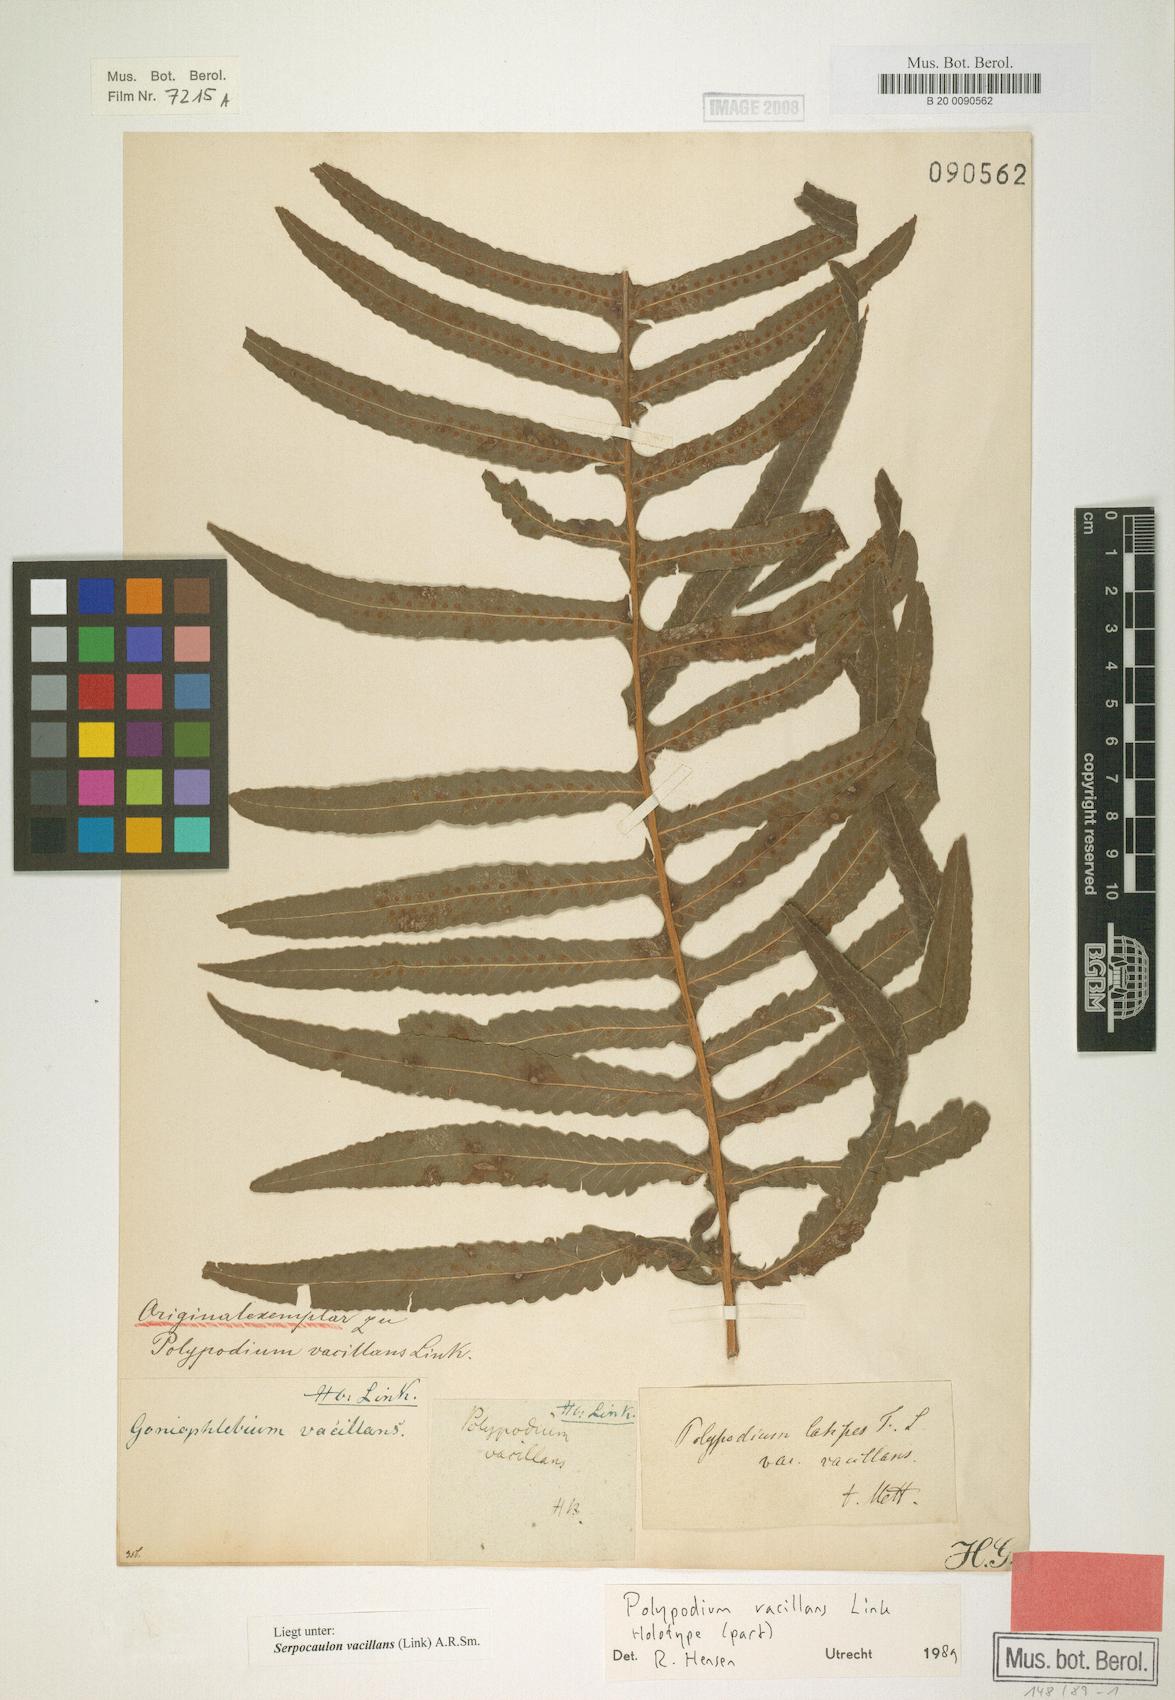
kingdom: Plantae
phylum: Tracheophyta
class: Polypodiopsida
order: Polypodiales
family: Polypodiaceae
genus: Serpocaulon
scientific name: Serpocaulon vacillans
